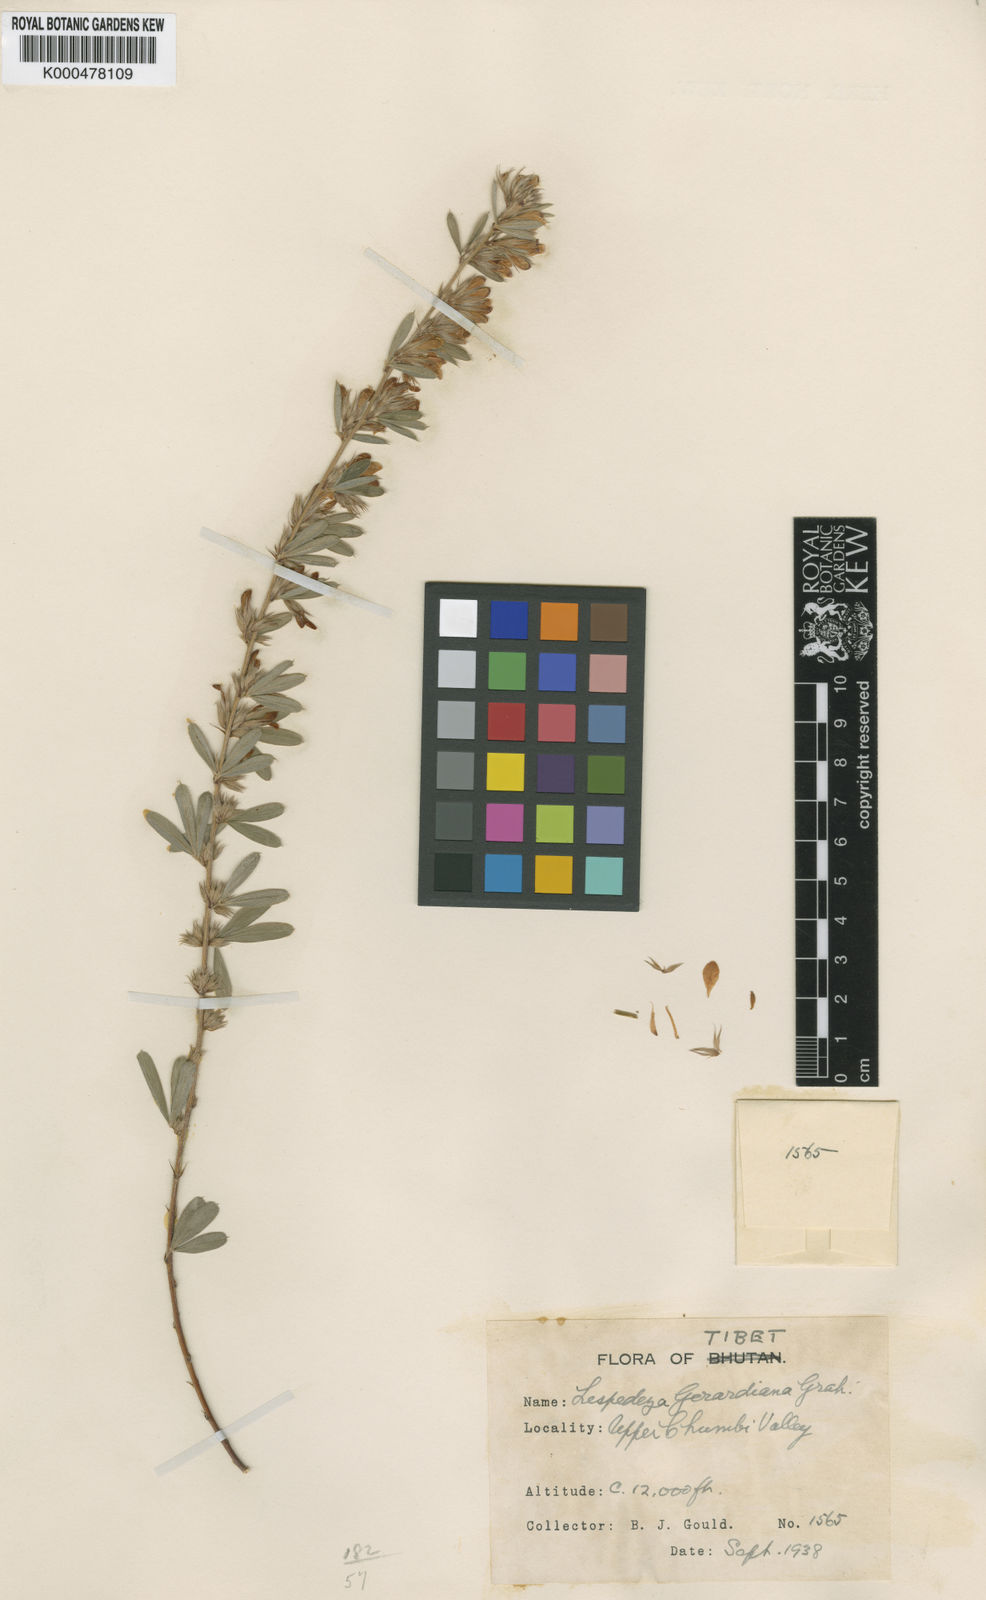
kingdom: Plantae
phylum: Tracheophyta
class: Magnoliopsida
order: Fabales
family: Fabaceae
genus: Lespedeza
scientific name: Lespedeza
